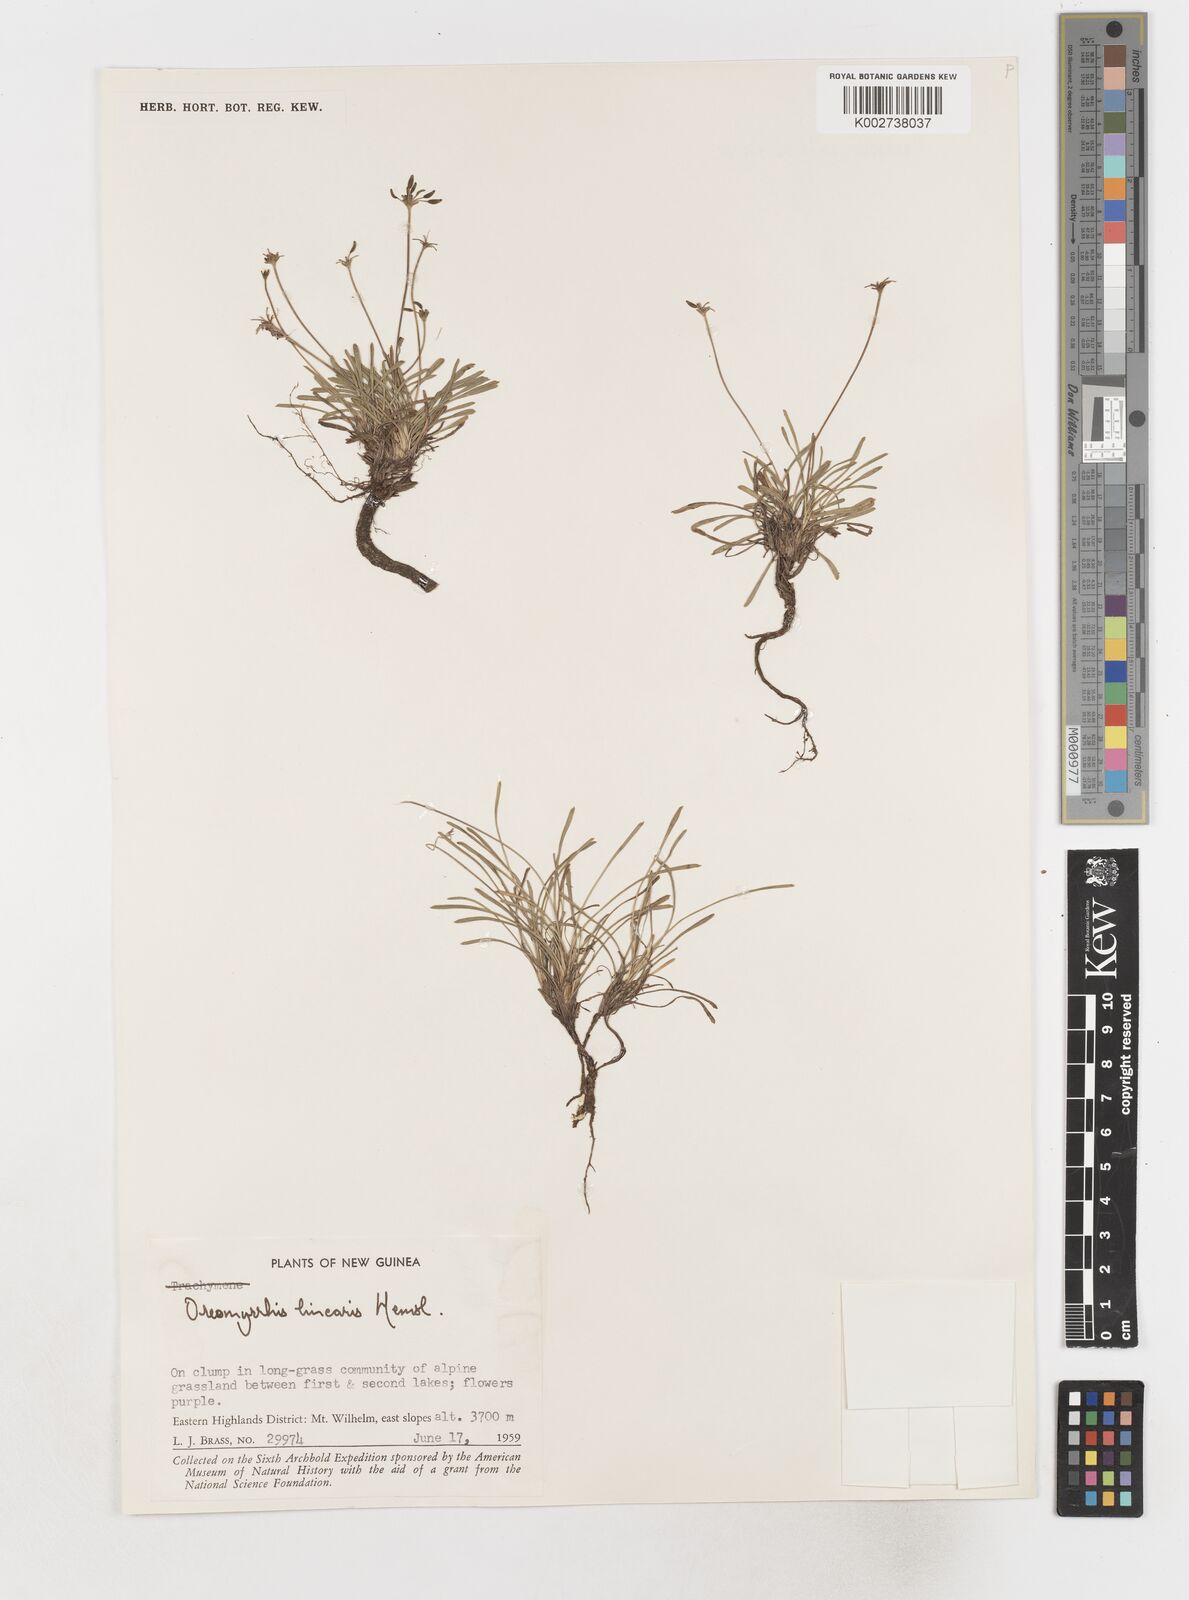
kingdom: Plantae
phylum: Tracheophyta
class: Magnoliopsida
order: Apiales
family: Apiaceae
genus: Chaerophyllum
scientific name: Chaerophyllum lineare
